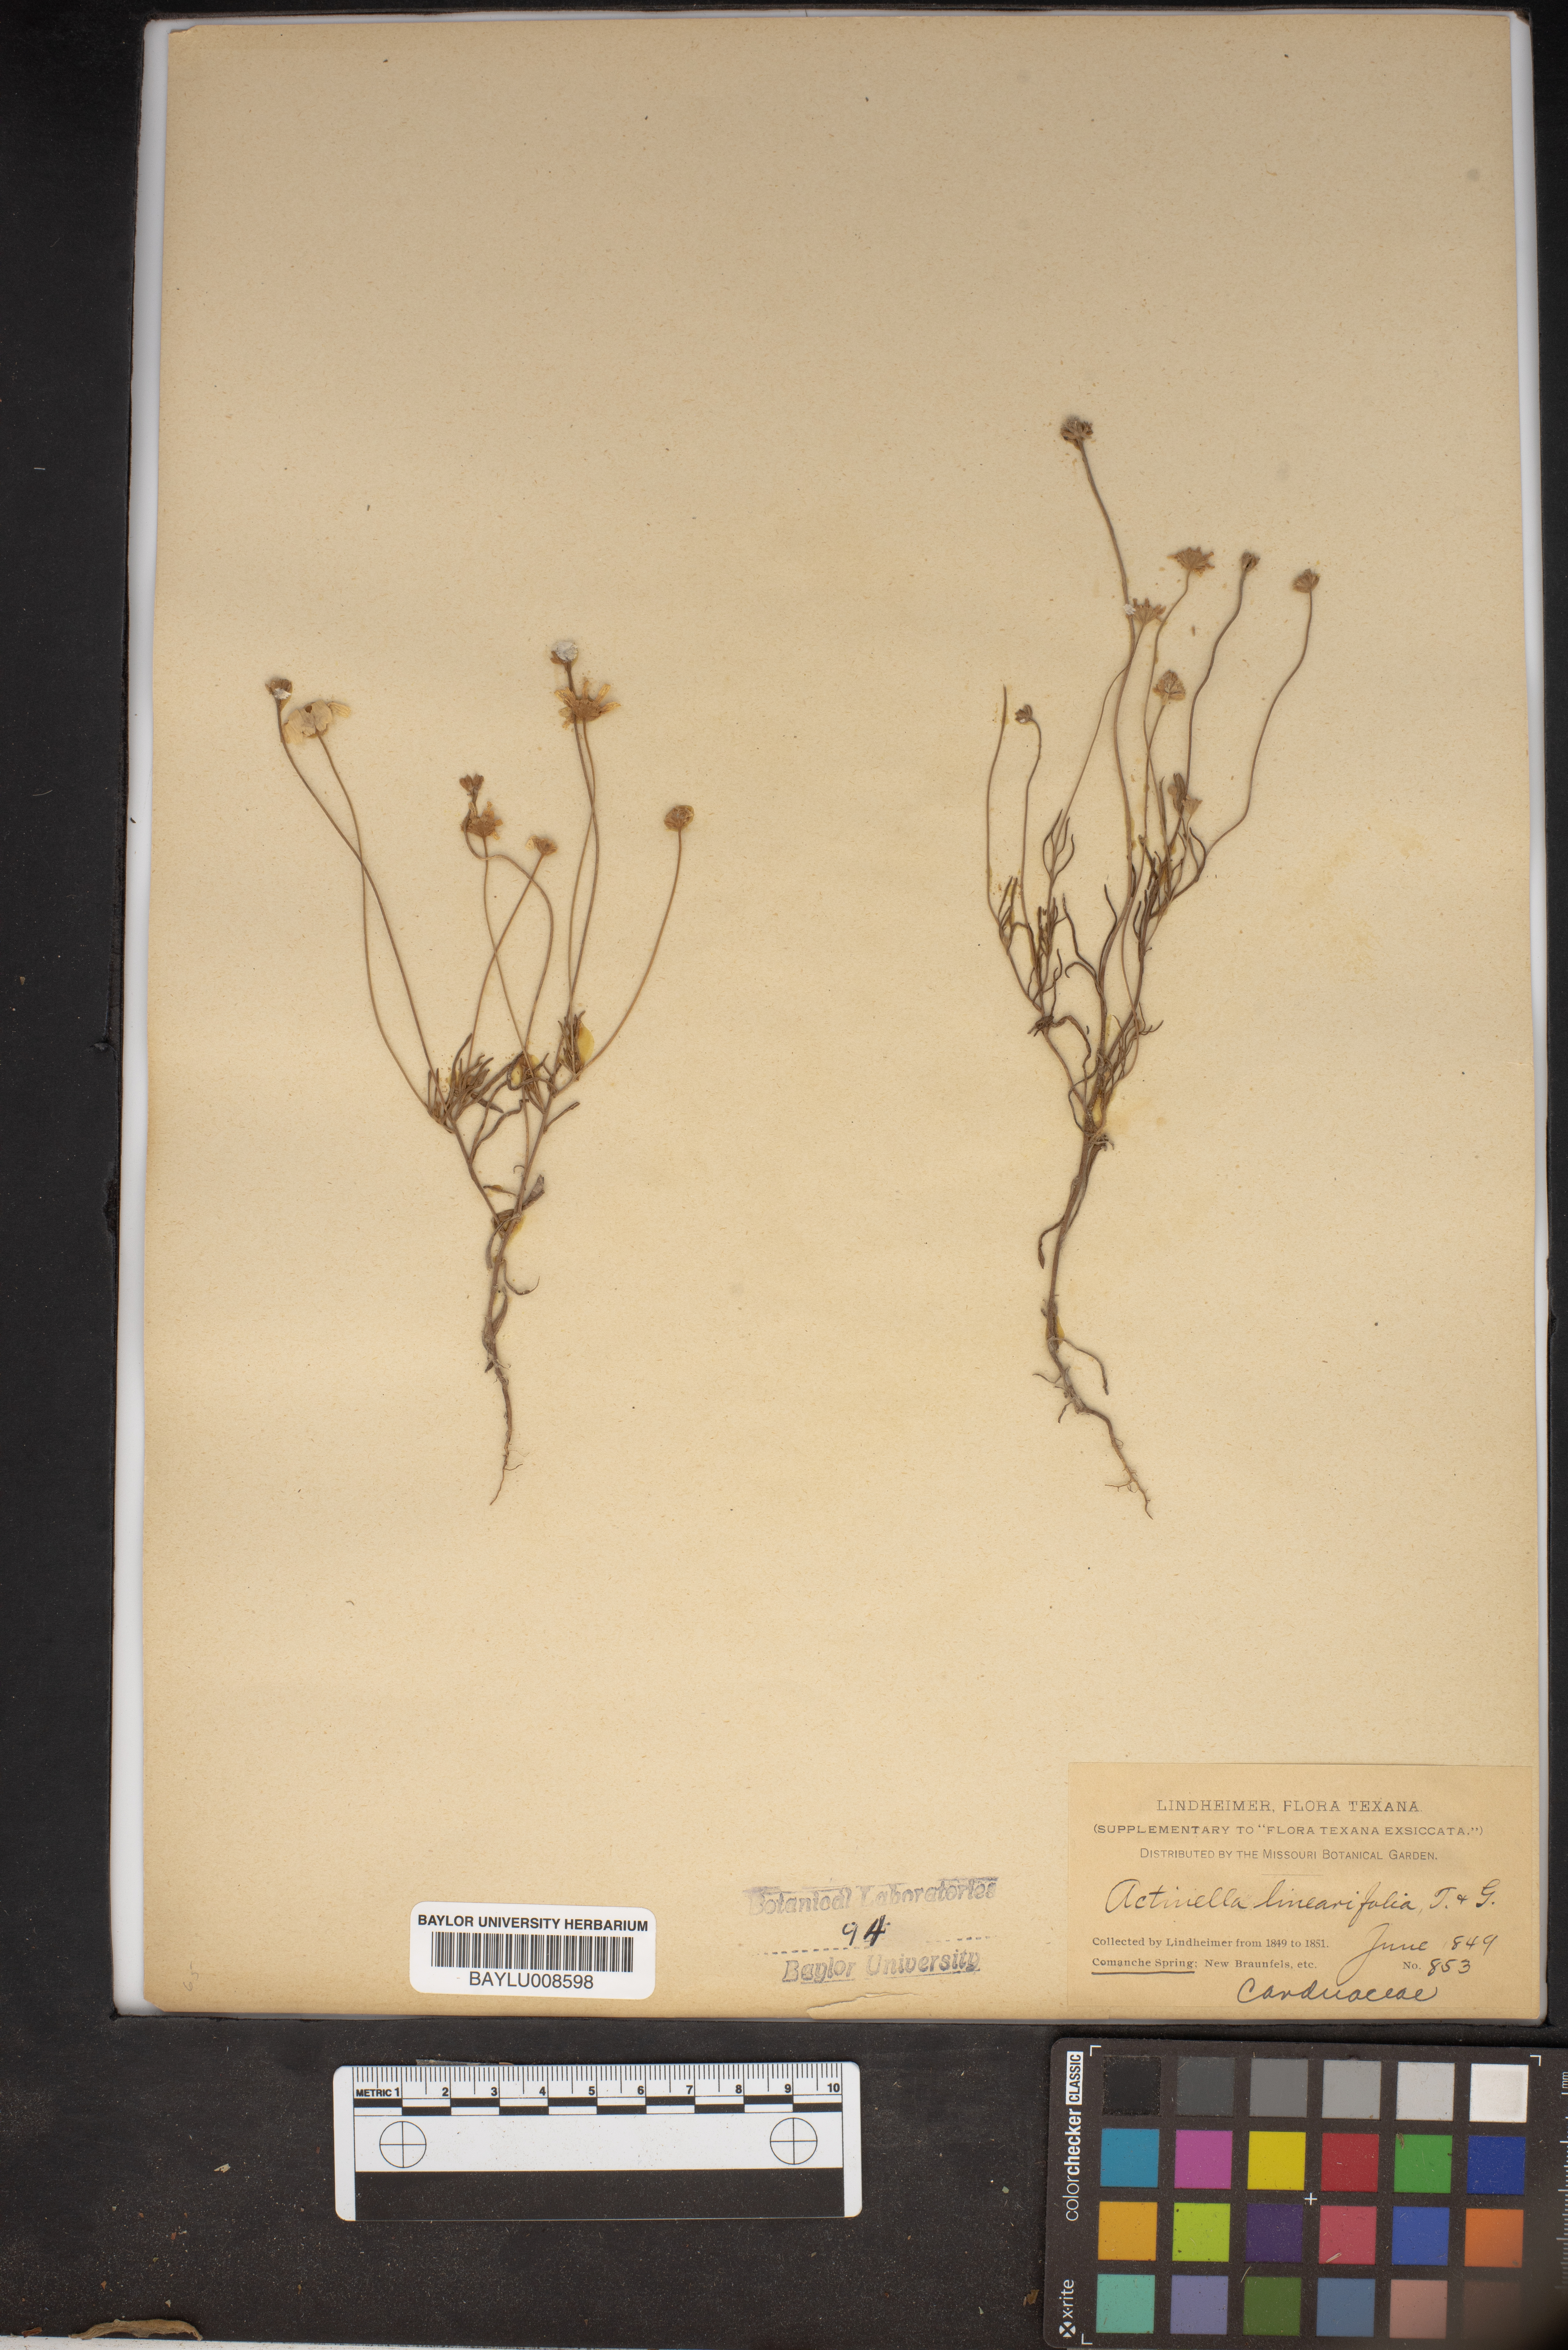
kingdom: Plantae
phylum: Tracheophyta
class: Magnoliopsida
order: Asterales
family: Asteraceae
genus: Hymenoxys
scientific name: Hymenoxys Actinella linearifolia
